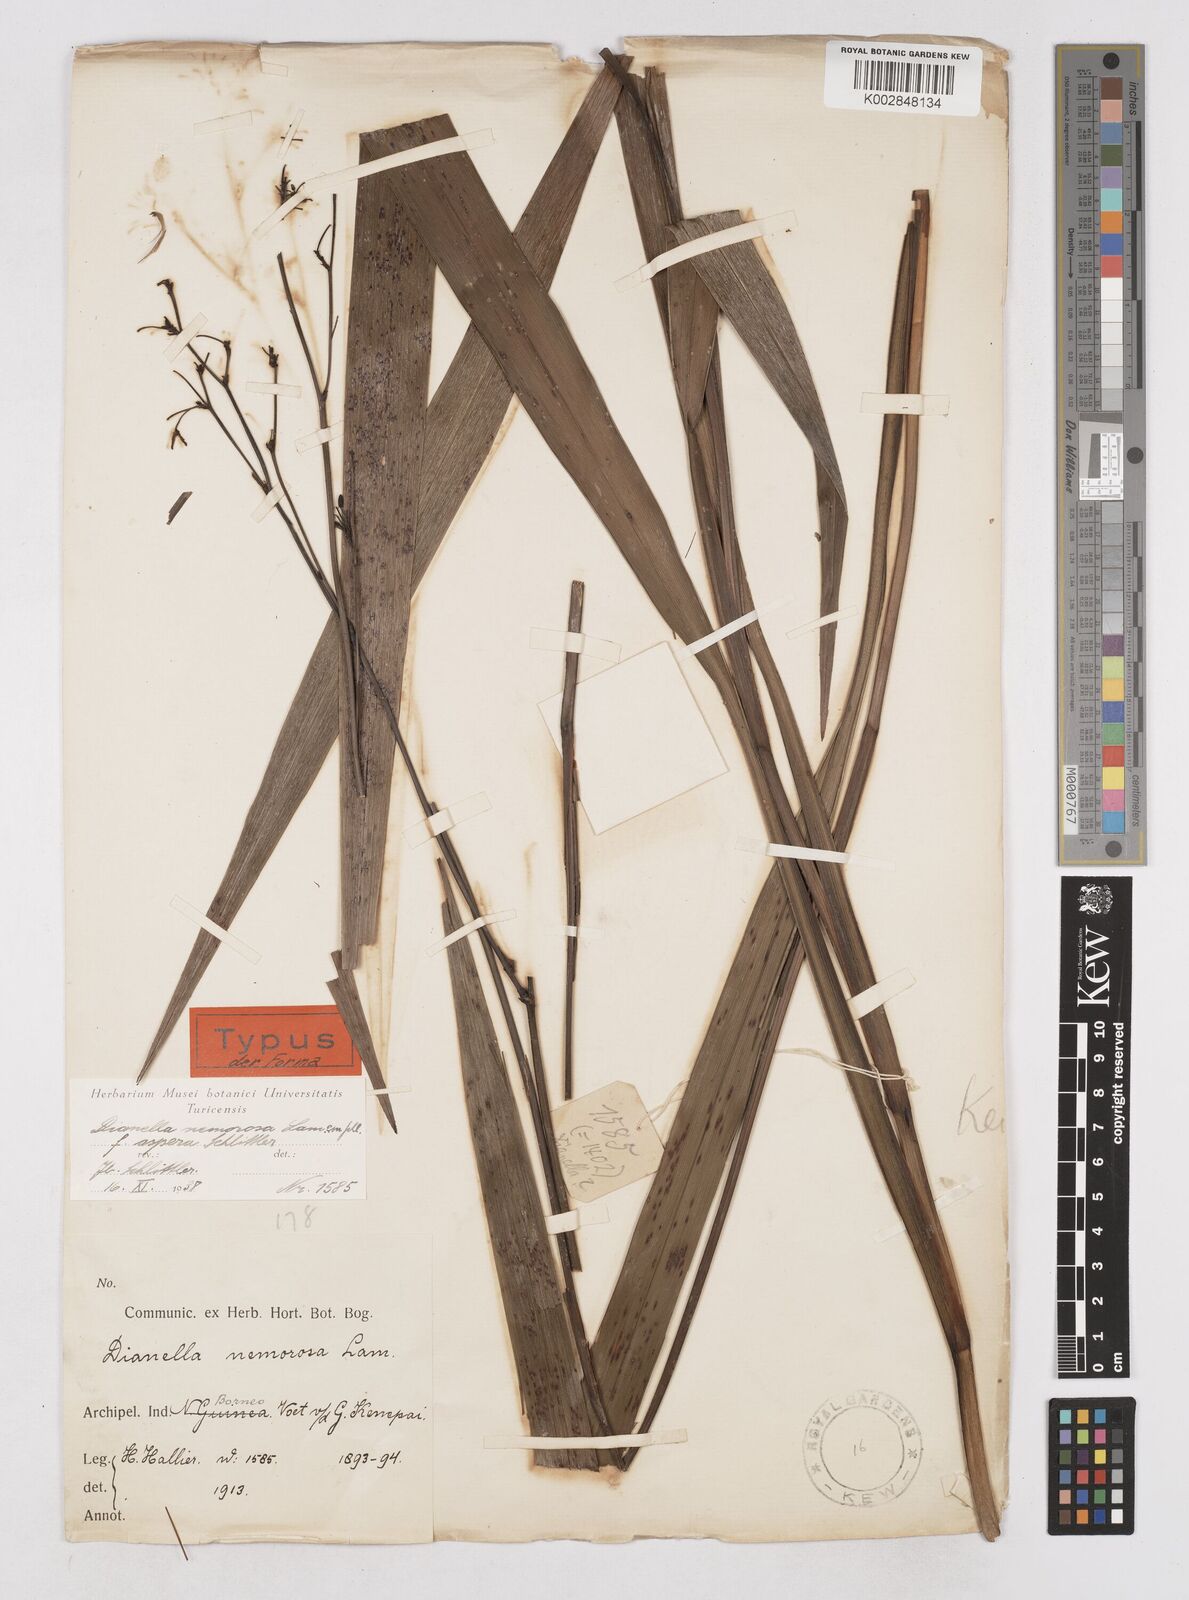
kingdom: Plantae
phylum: Tracheophyta
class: Liliopsida
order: Asparagales
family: Asphodelaceae
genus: Dianella
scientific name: Dianella ensifolia
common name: New zealand lilyplant
